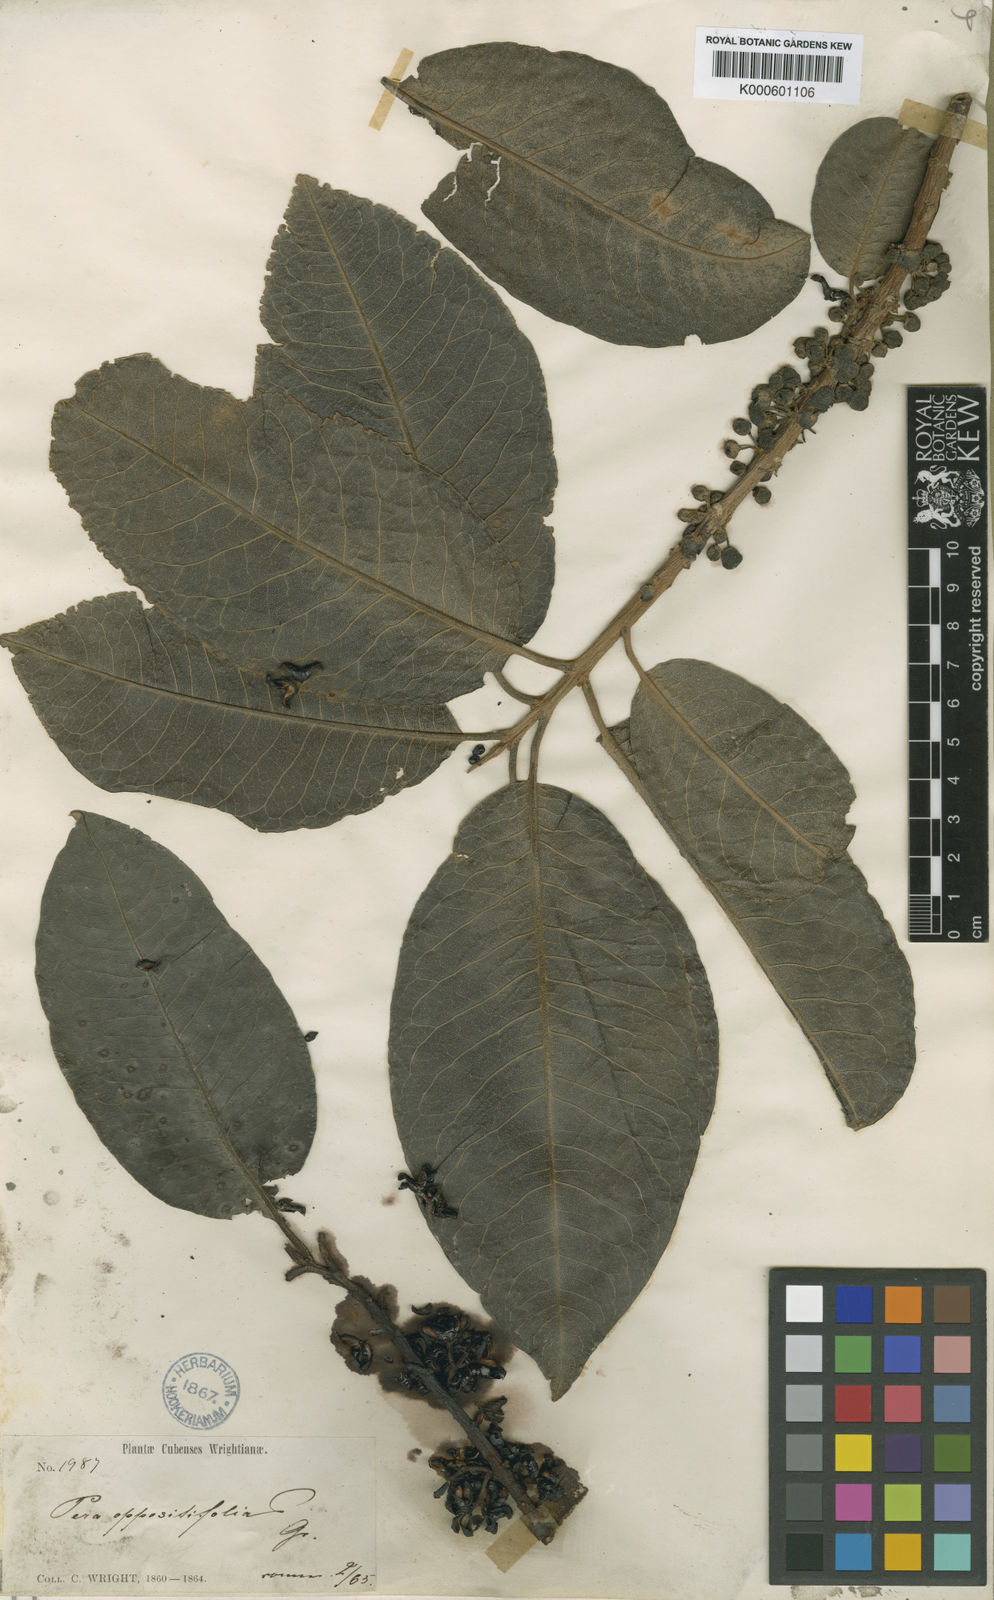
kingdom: Plantae
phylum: Tracheophyta
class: Magnoliopsida
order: Malpighiales
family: Peraceae
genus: Pera
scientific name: Pera oppositifolia
